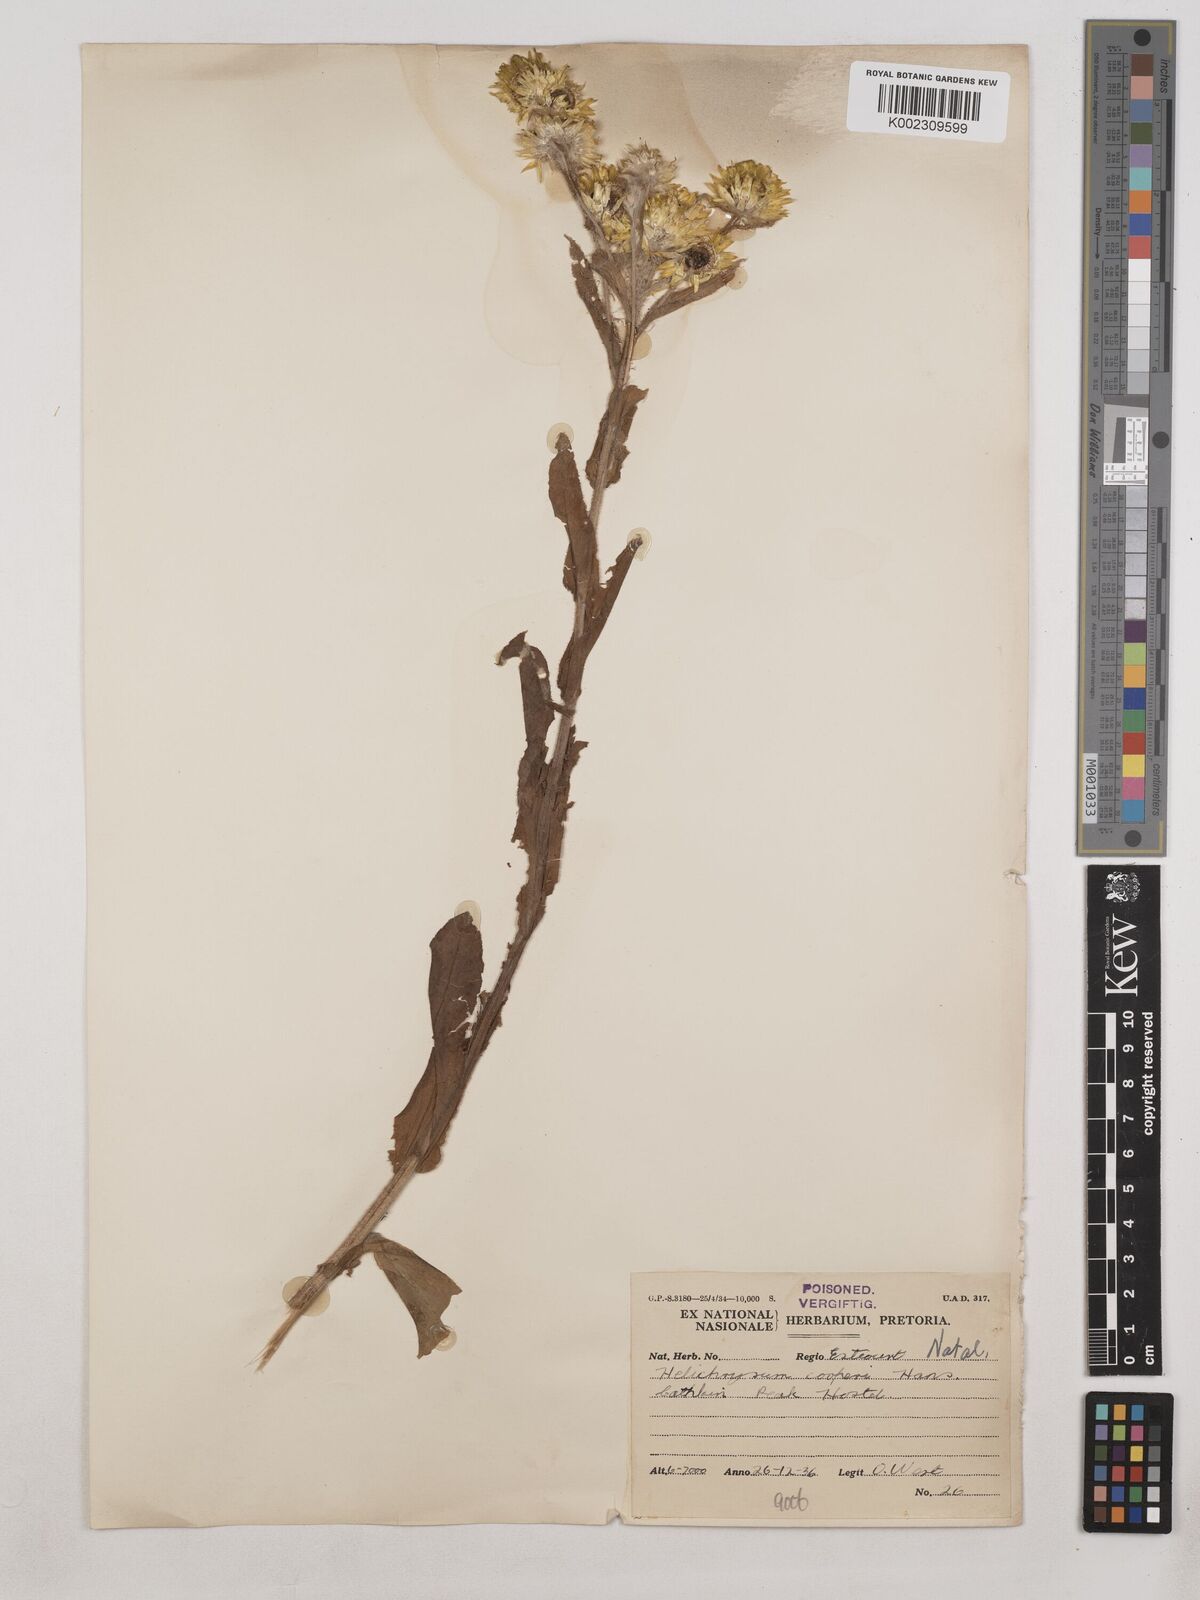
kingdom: Plantae
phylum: Tracheophyta
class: Magnoliopsida
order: Asterales
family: Asteraceae
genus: Helichrysum
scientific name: Helichrysum cooperi
